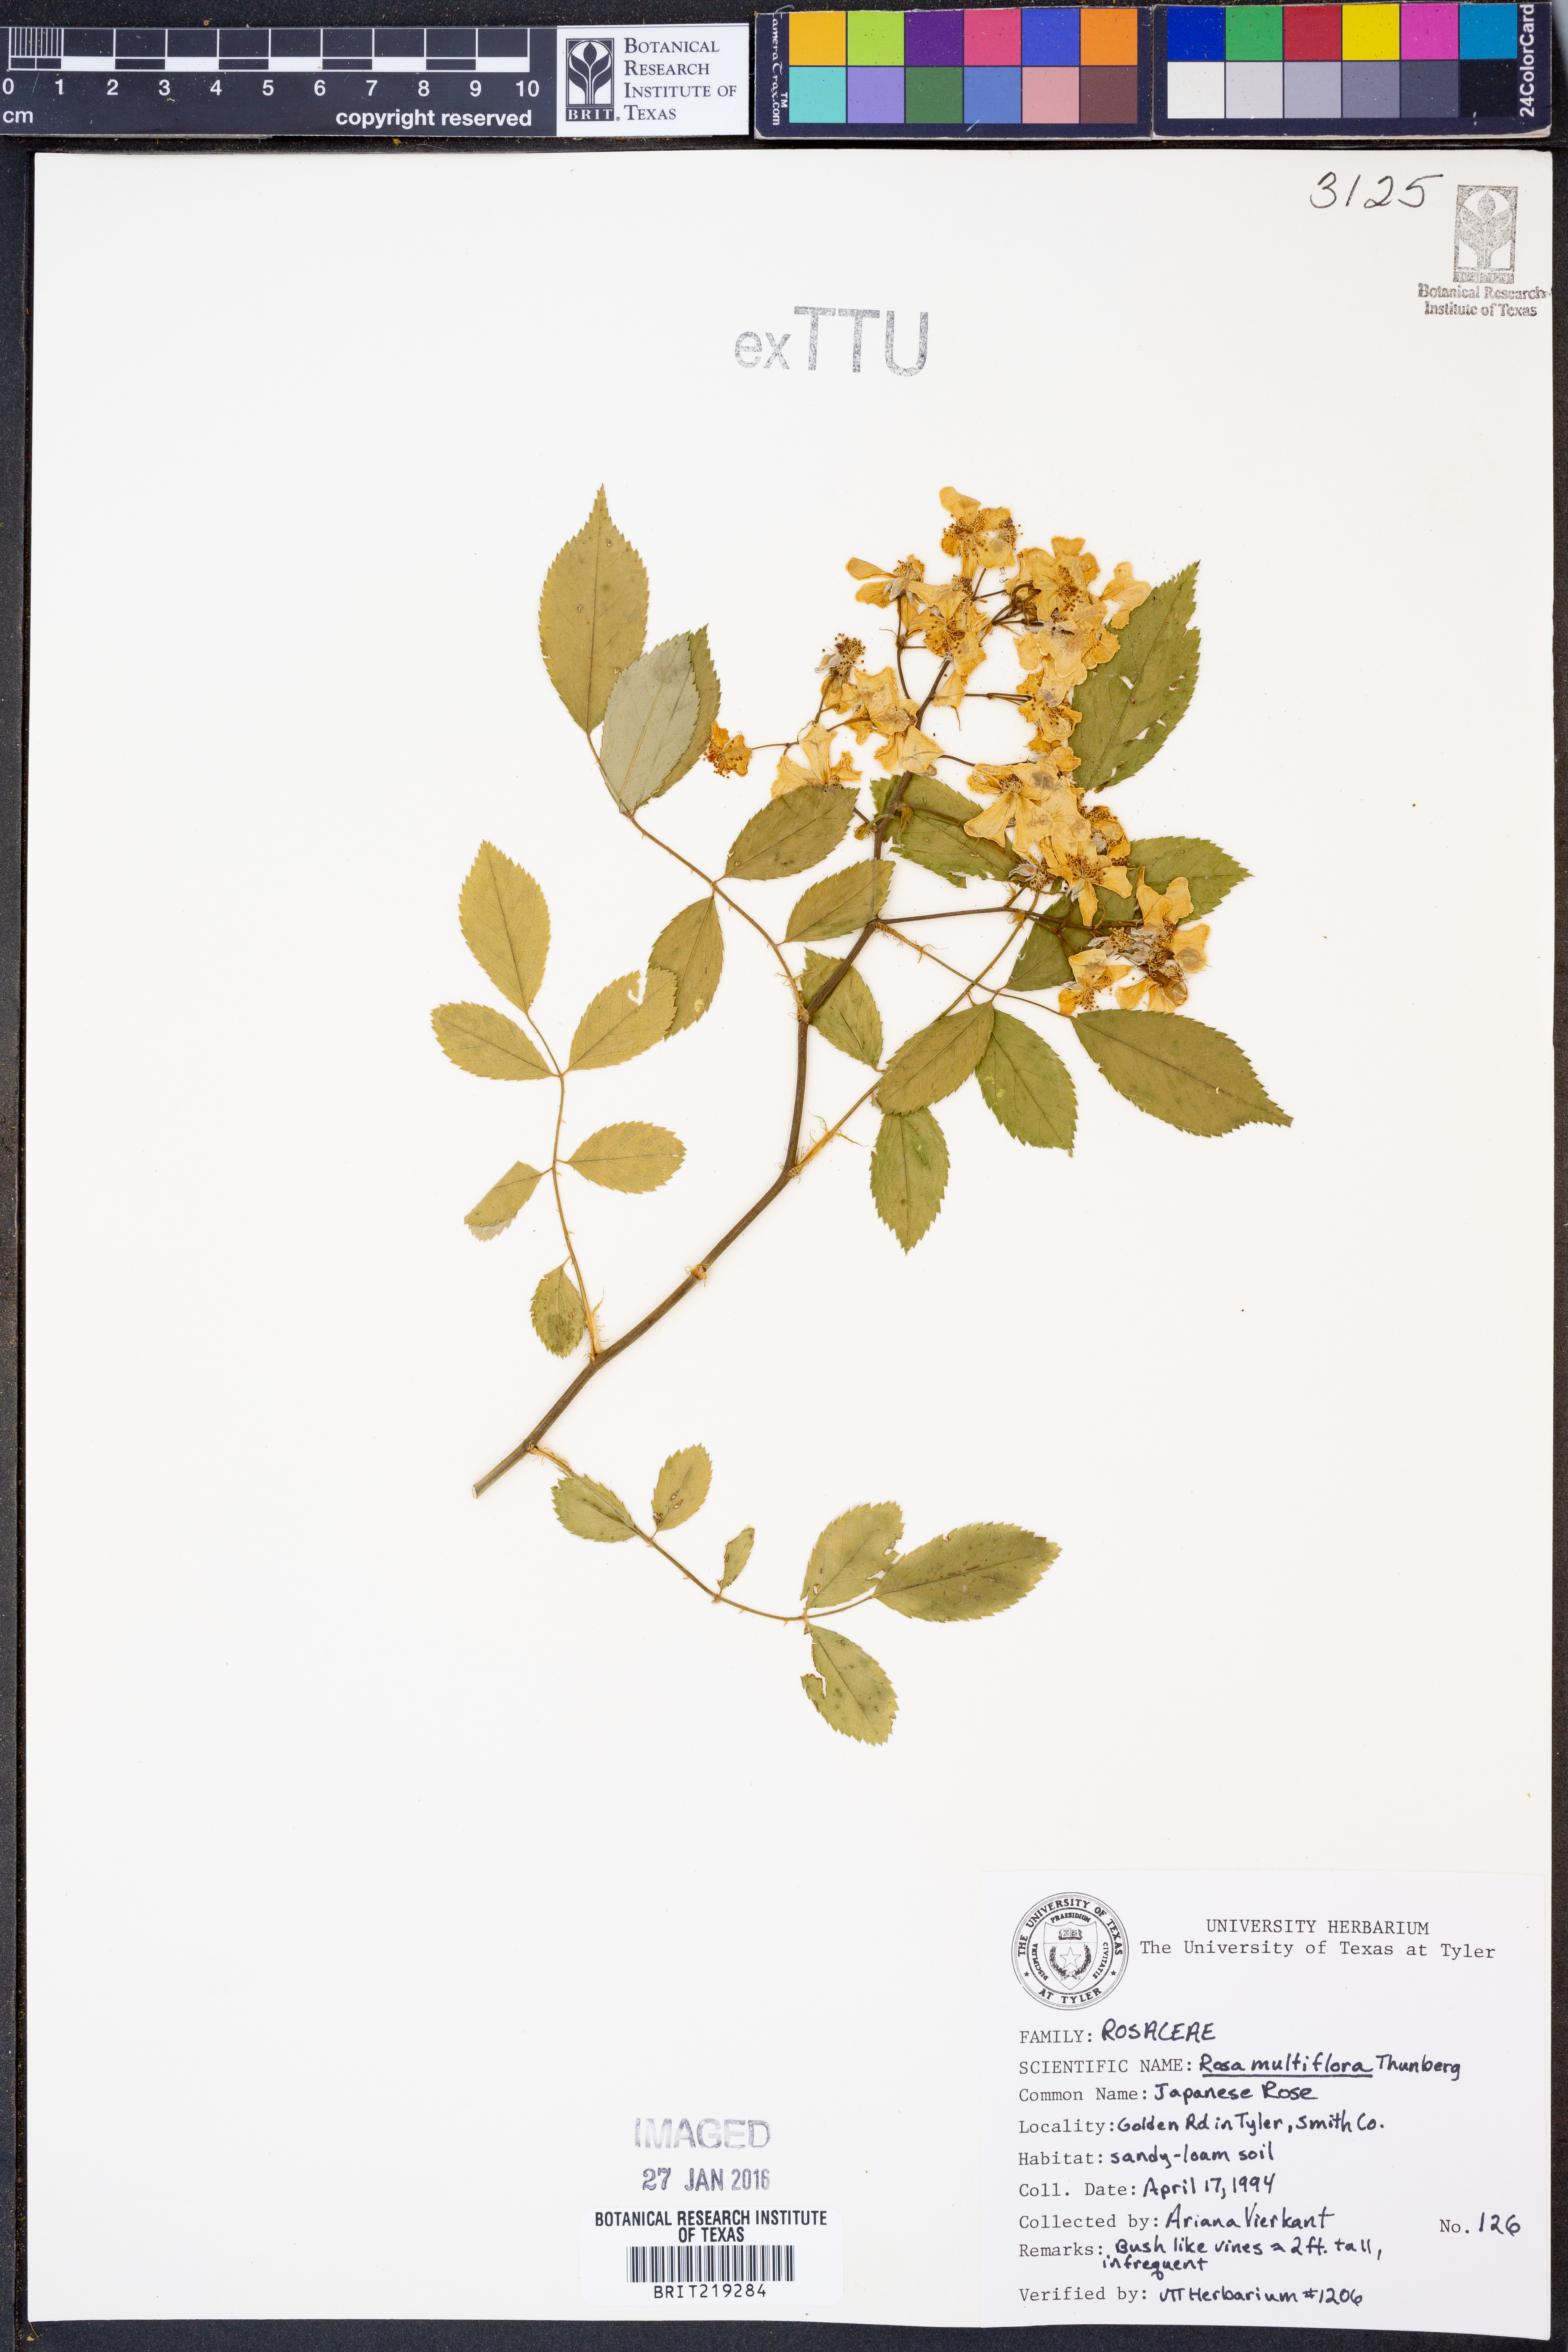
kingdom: Plantae
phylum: Tracheophyta
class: Magnoliopsida
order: Rosales
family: Rosaceae
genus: Rosa
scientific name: Rosa multiflora
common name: Multiflora rose
